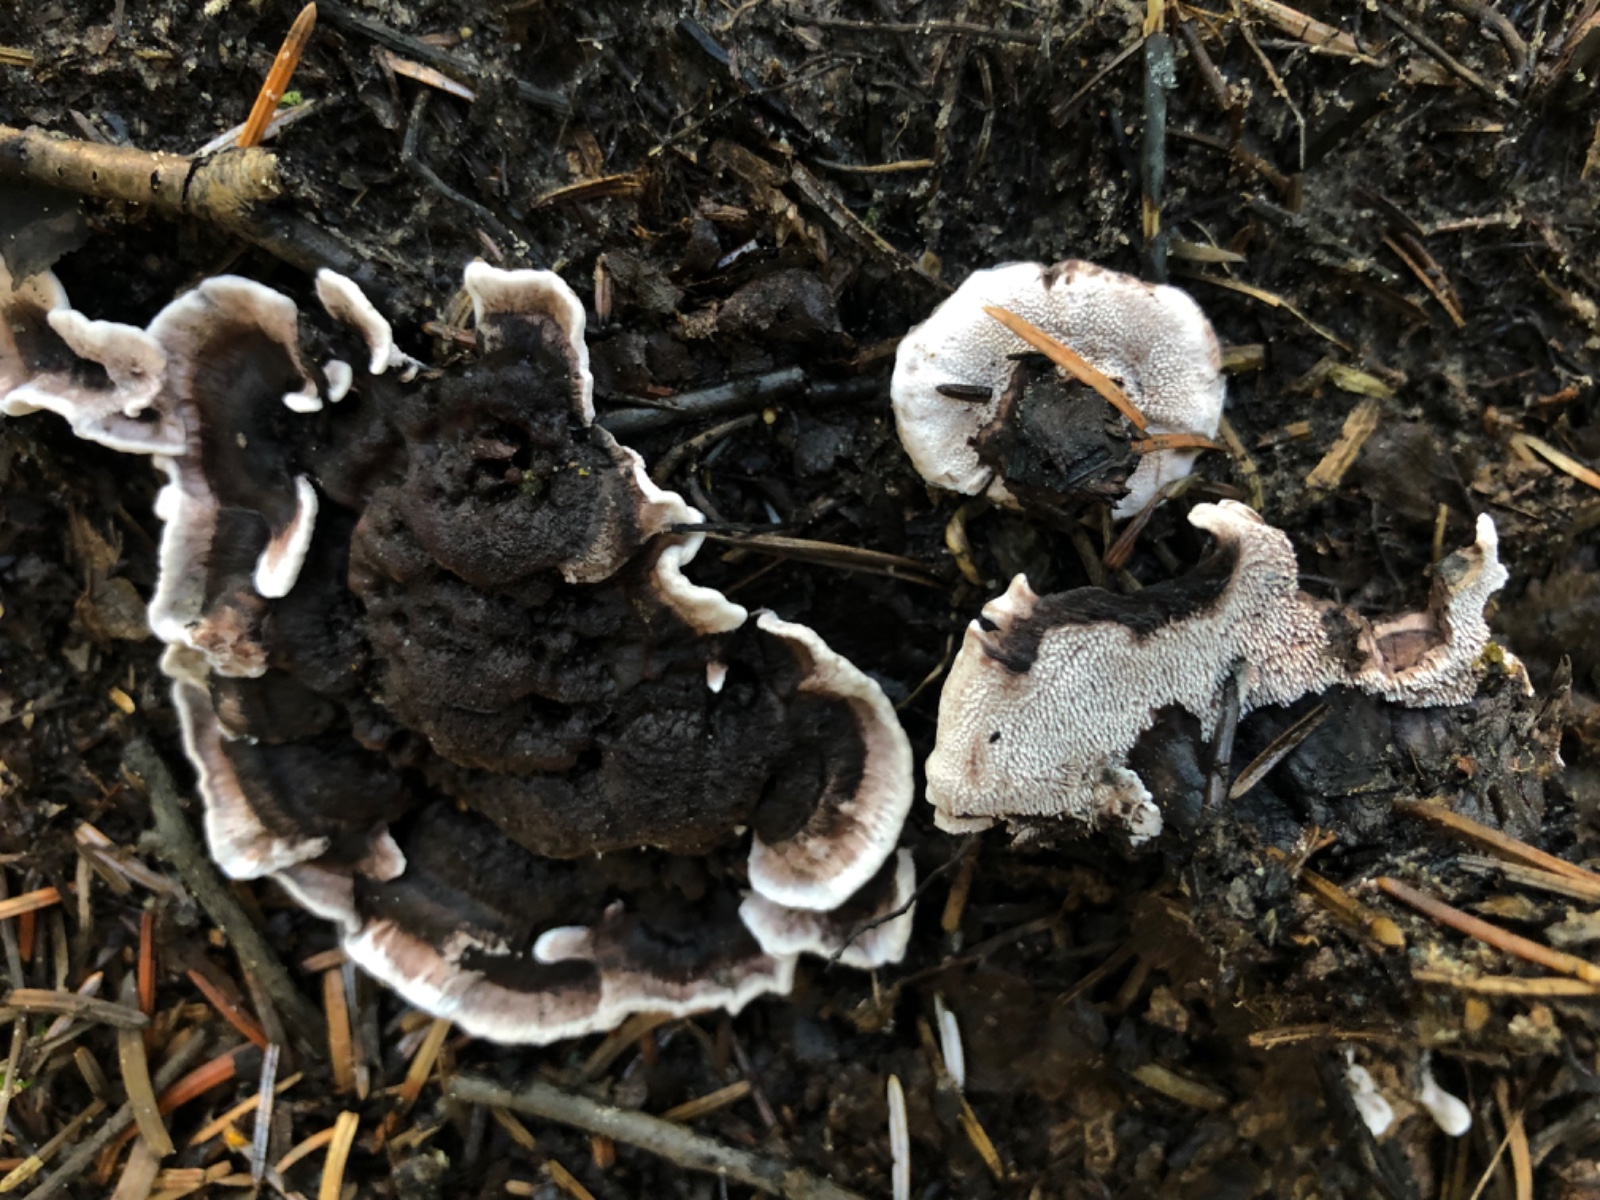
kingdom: Fungi
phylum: Basidiomycota
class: Agaricomycetes
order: Thelephorales
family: Thelephoraceae
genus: Phellodon
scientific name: Phellodon tomentosus
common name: vellugtende duftpigsvamp
